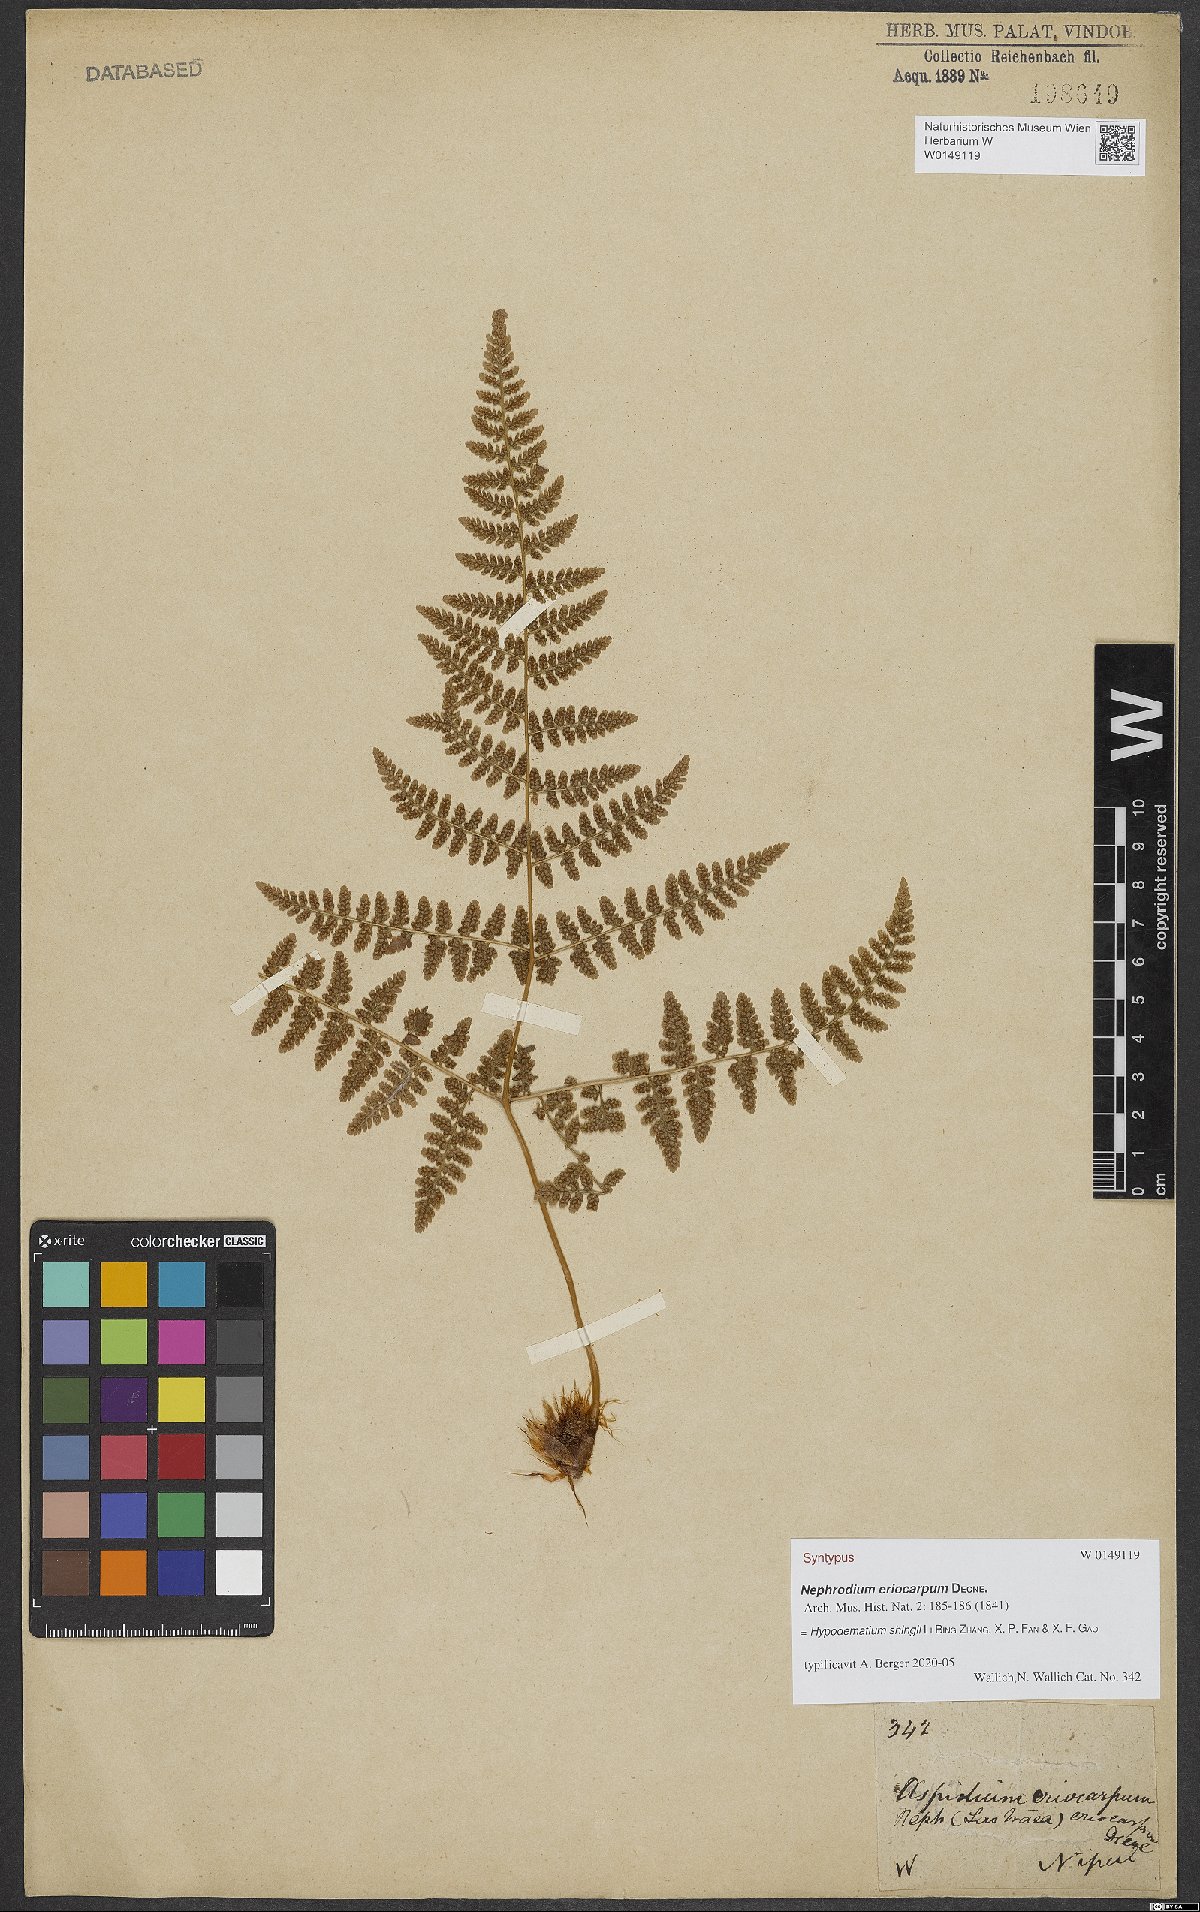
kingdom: Plantae
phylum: Tracheophyta
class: Polypodiopsida
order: Polypodiales
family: Hypodematiaceae
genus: Hypodematium
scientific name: Hypodematium shingii
